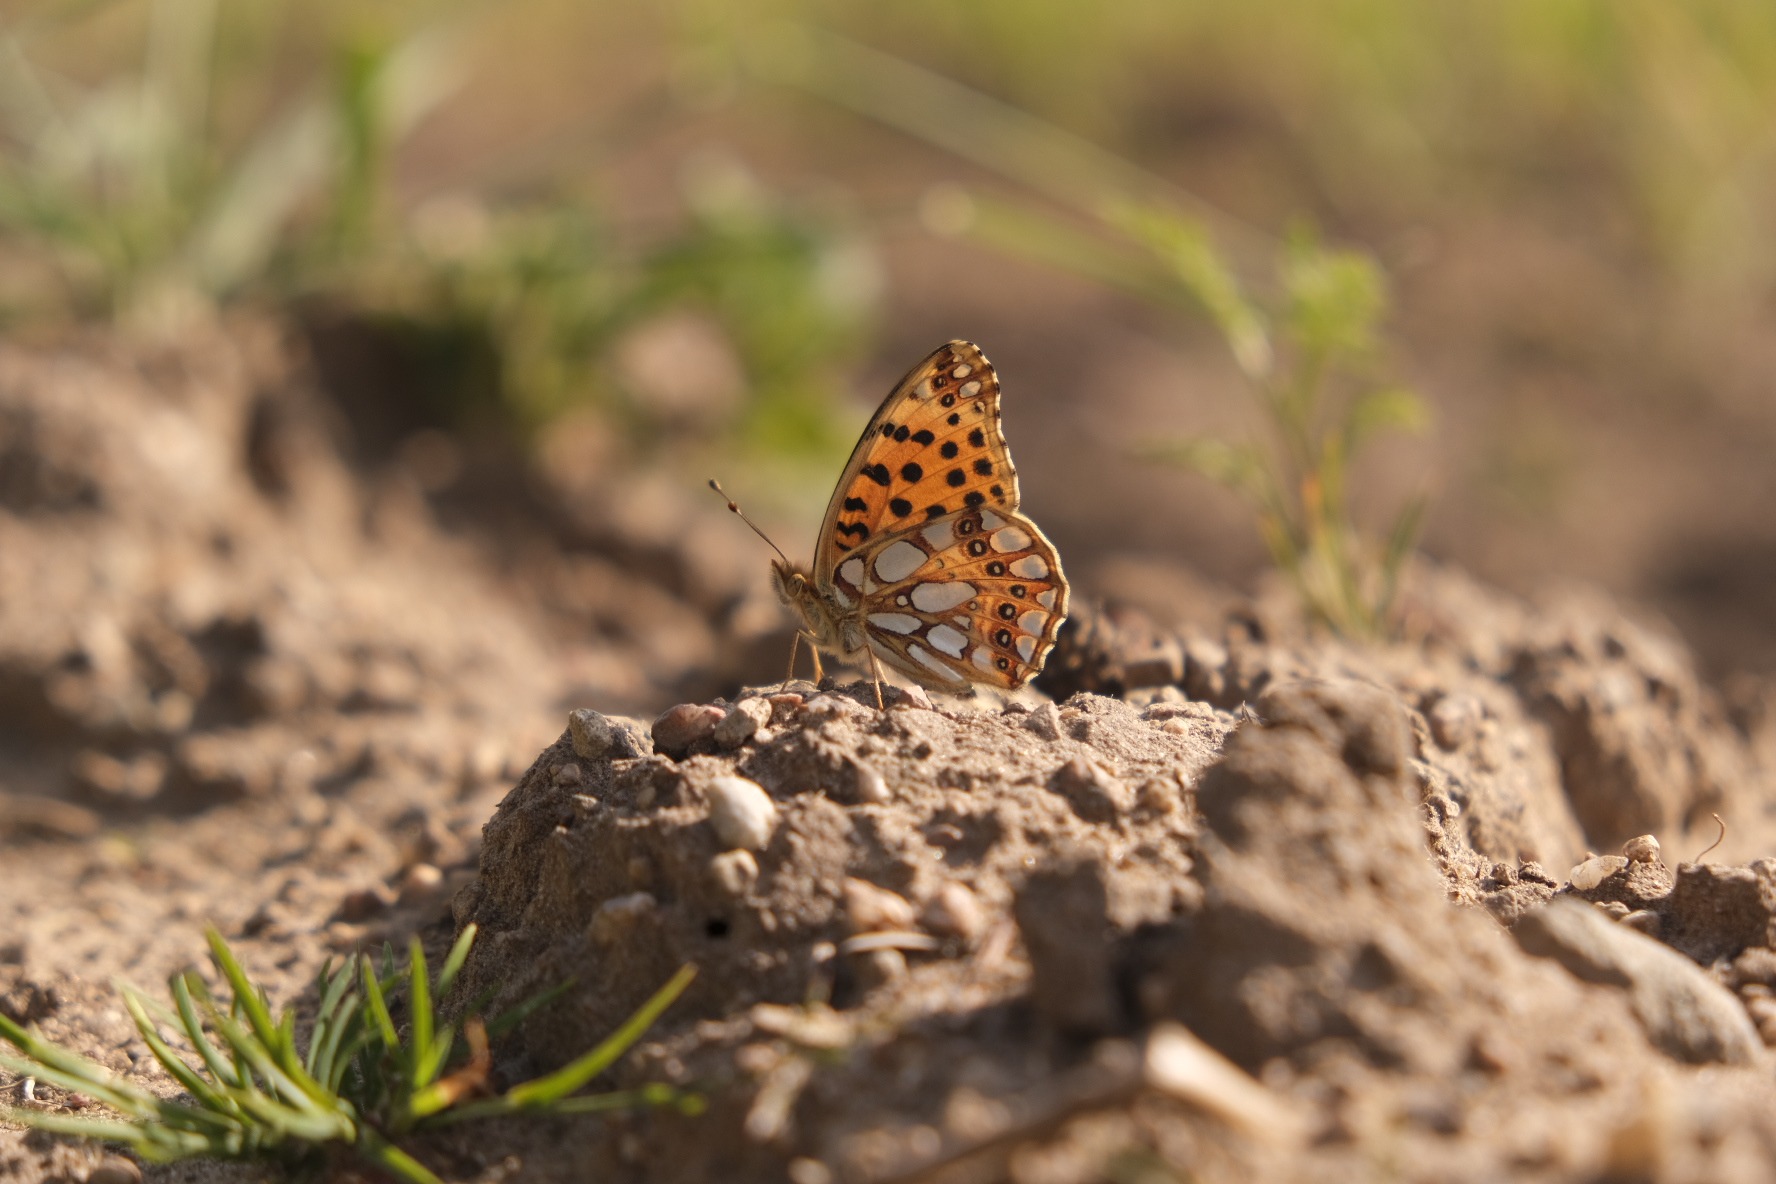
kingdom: Animalia
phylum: Arthropoda
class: Insecta
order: Lepidoptera
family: Nymphalidae
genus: Issoria
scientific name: Issoria lathonia
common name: Storplettet perlemorsommerfugl
